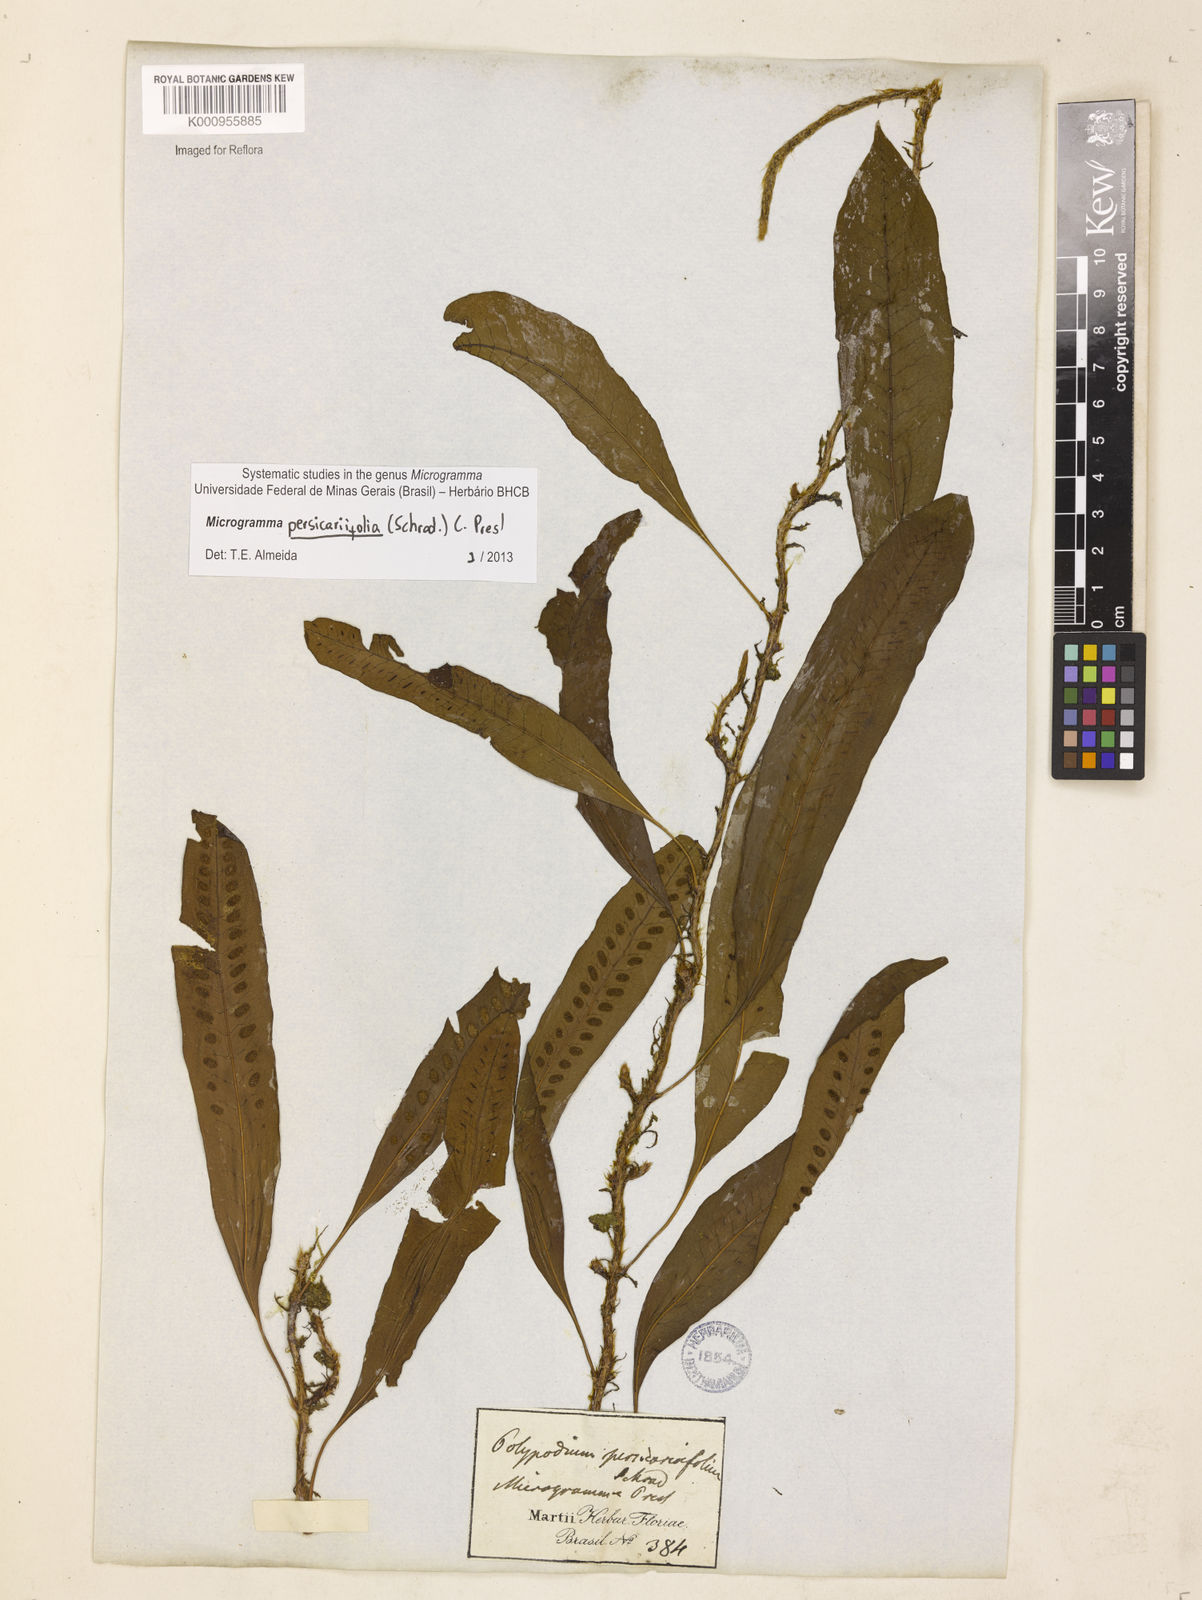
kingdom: Plantae
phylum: Tracheophyta
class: Polypodiopsida
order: Polypodiales
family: Polypodiaceae
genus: Microgramma
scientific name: Microgramma persicariifolia
